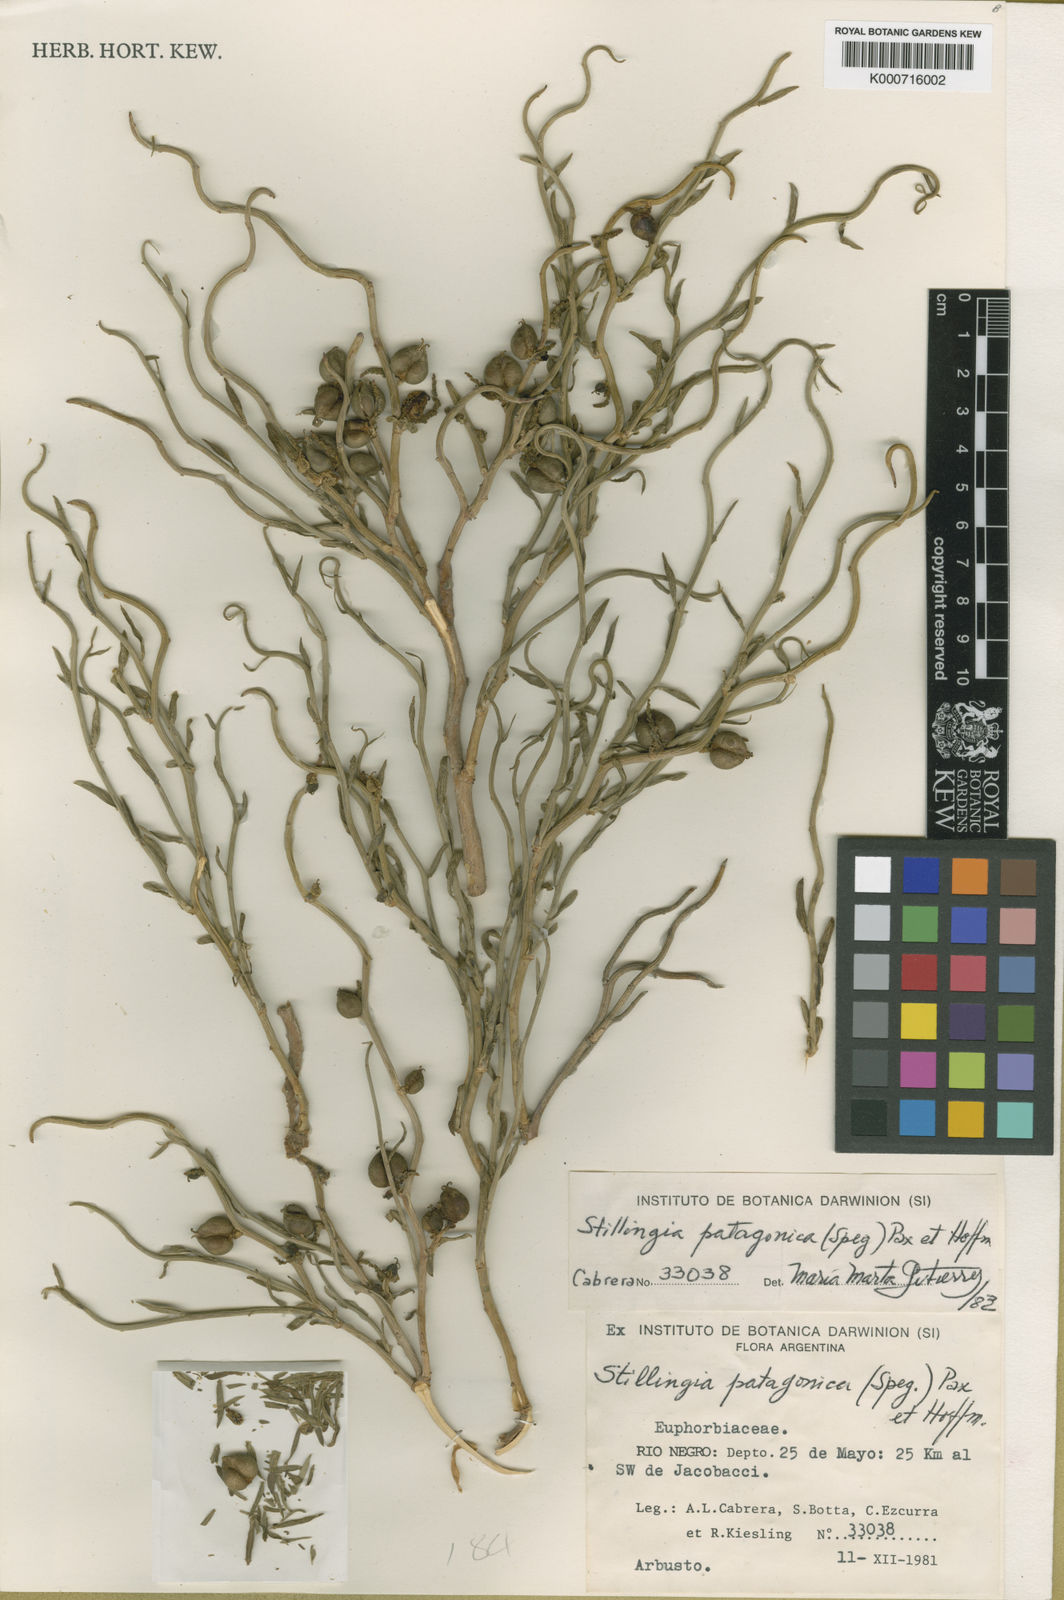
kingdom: Plantae
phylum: Tracheophyta
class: Magnoliopsida
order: Malpighiales
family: Euphorbiaceae
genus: Spegazziniophytum
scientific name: Spegazziniophytum patagonicum
